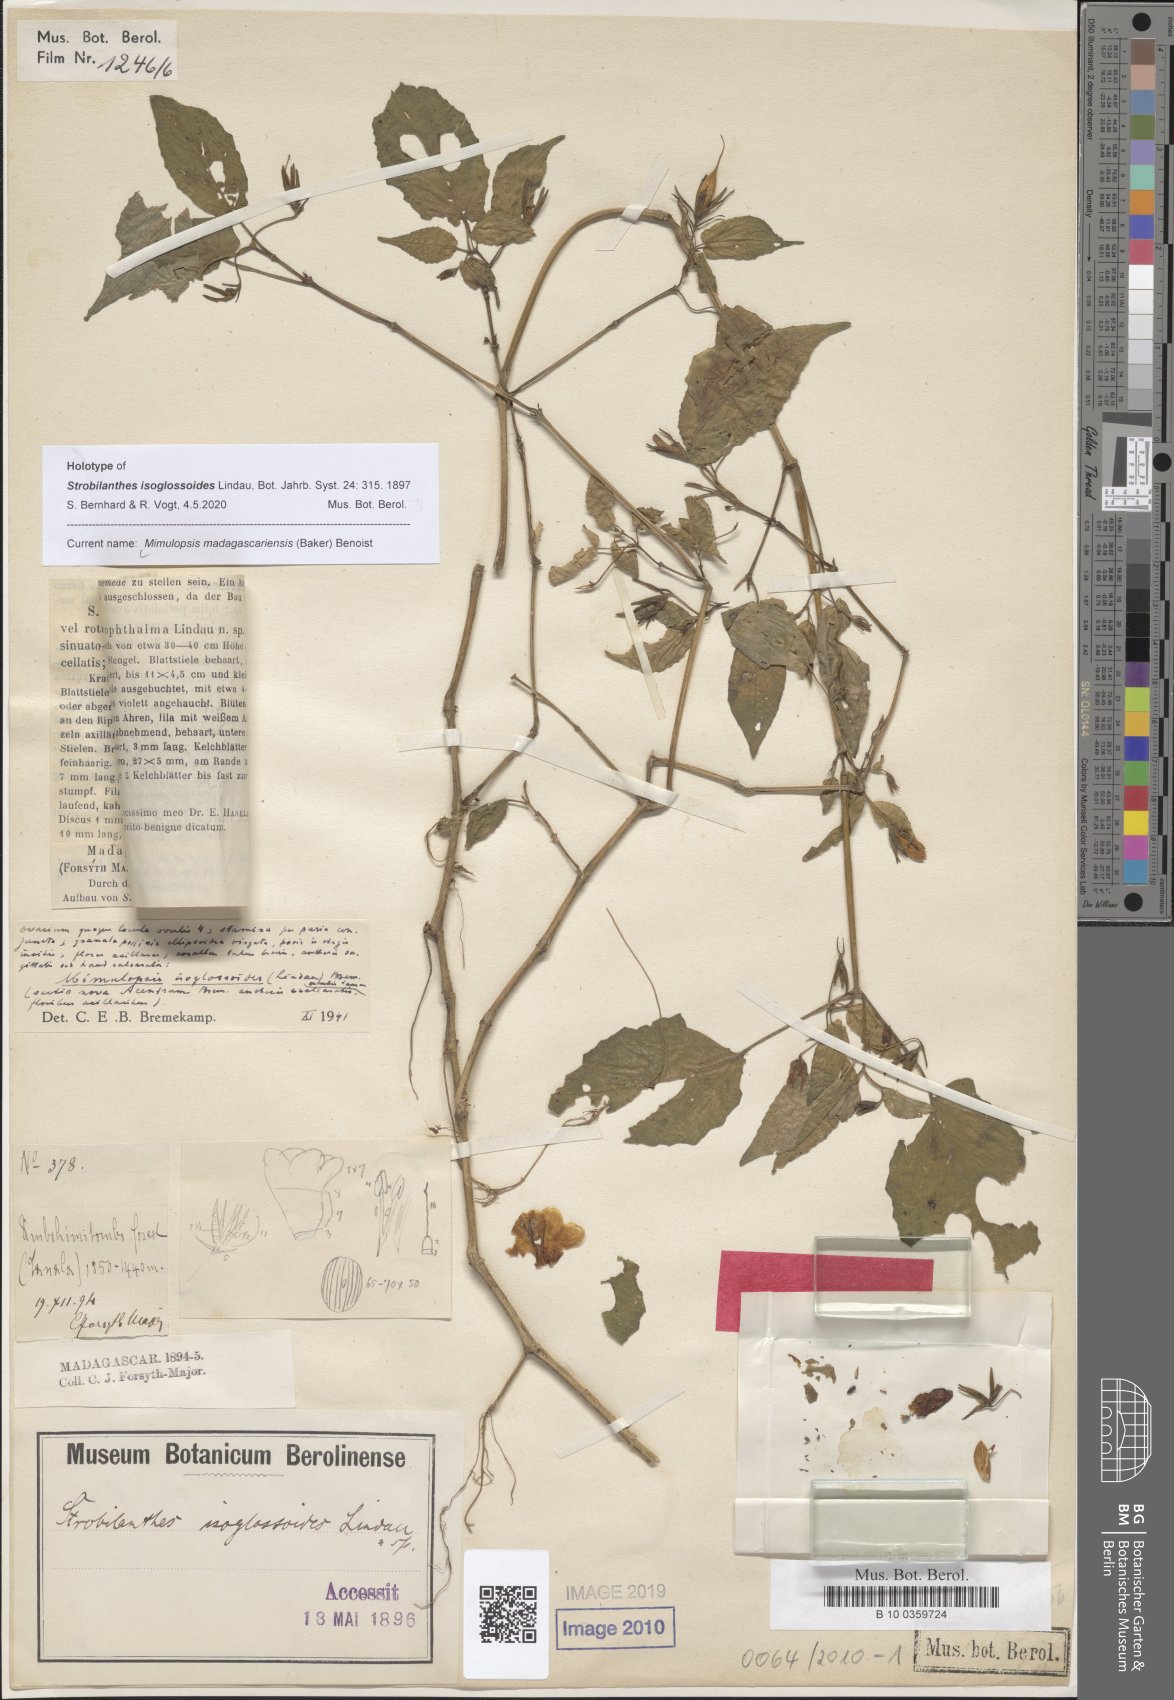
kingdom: Plantae
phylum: Tracheophyta
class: Magnoliopsida
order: Lamiales
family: Acanthaceae
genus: Mimulopsis
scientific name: Mimulopsis madagascariensis
